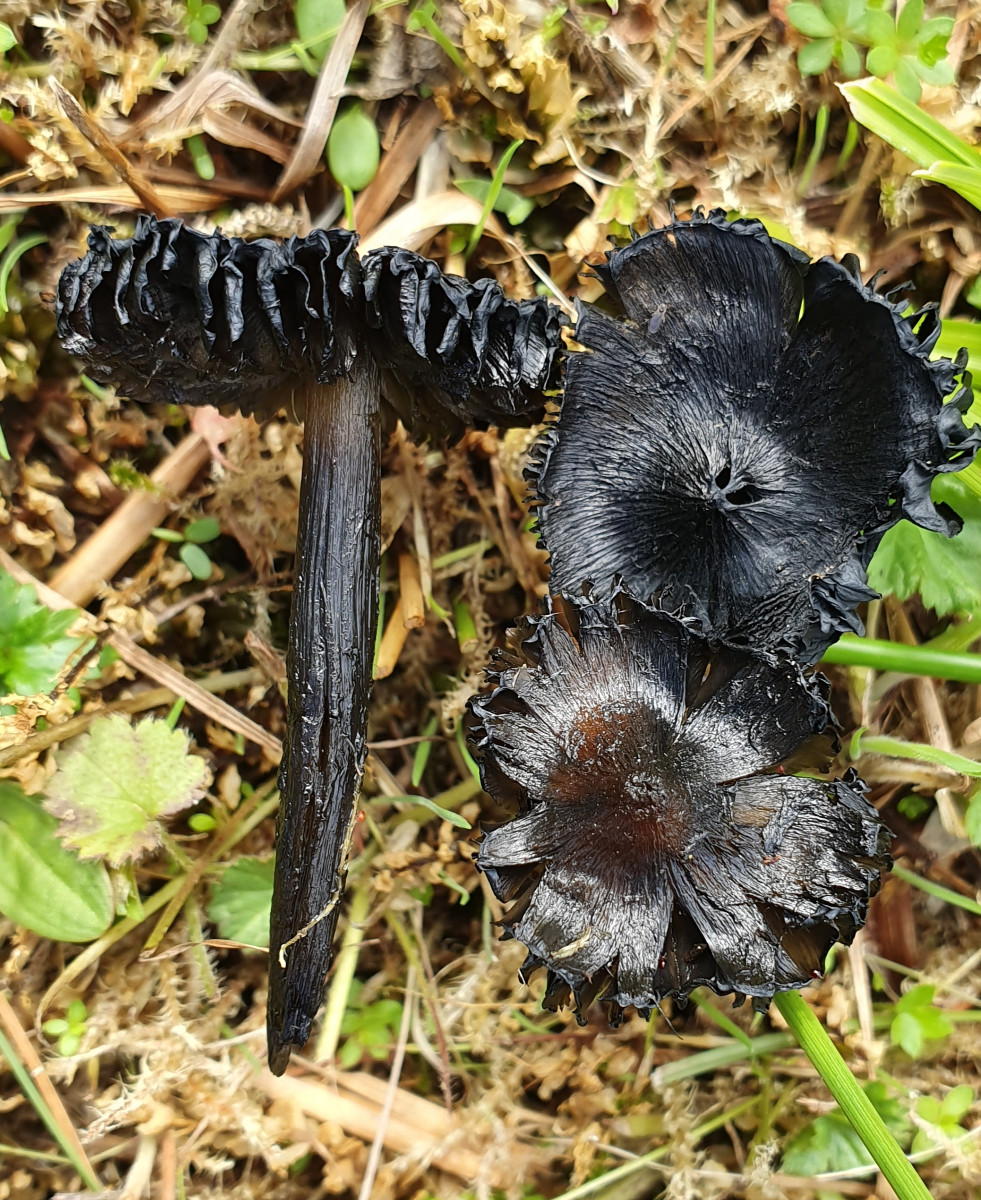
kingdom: Fungi
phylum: Basidiomycota
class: Agaricomycetes
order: Agaricales
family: Hygrophoraceae
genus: Hygrocybe
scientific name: Hygrocybe conica
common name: kegle-vokshat
